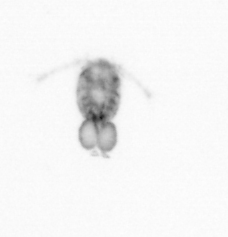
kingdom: Animalia
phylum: Arthropoda
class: Copepoda
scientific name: Copepoda
